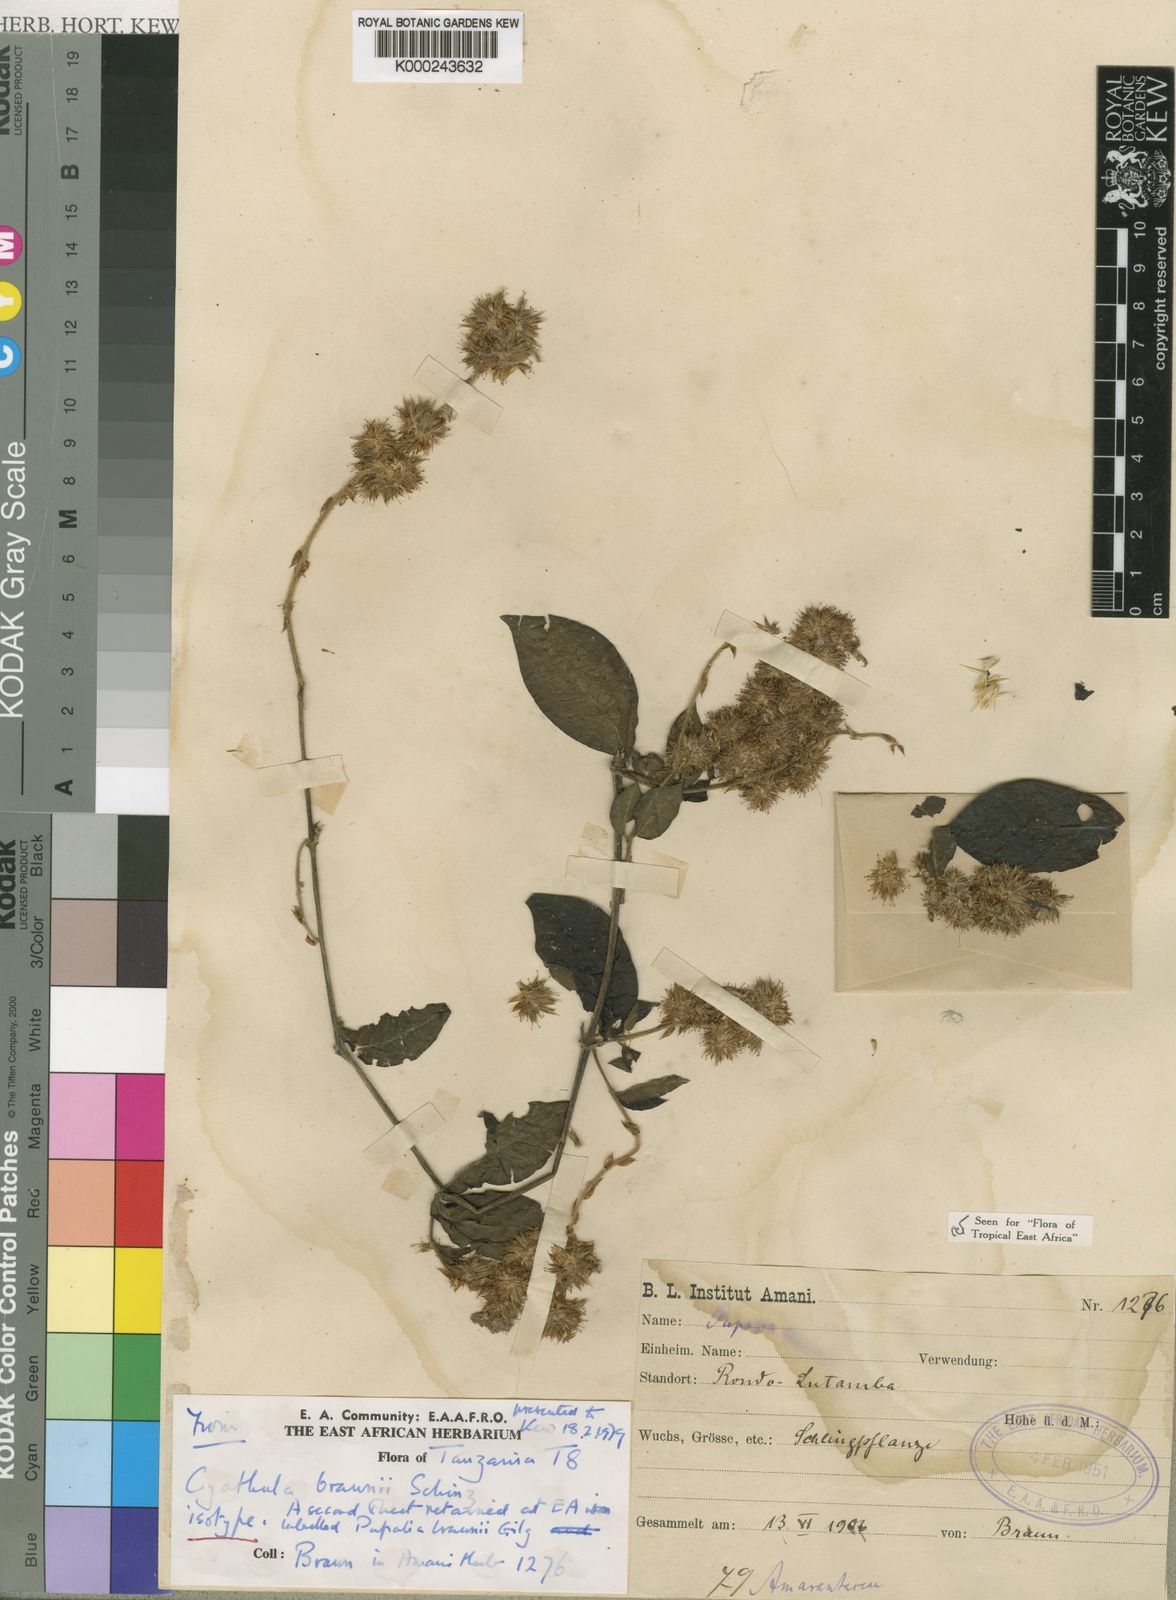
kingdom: Plantae
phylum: Tracheophyta
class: Magnoliopsida
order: Caryophyllales
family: Amaranthaceae
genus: Cyathula
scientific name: Cyathula braunii
